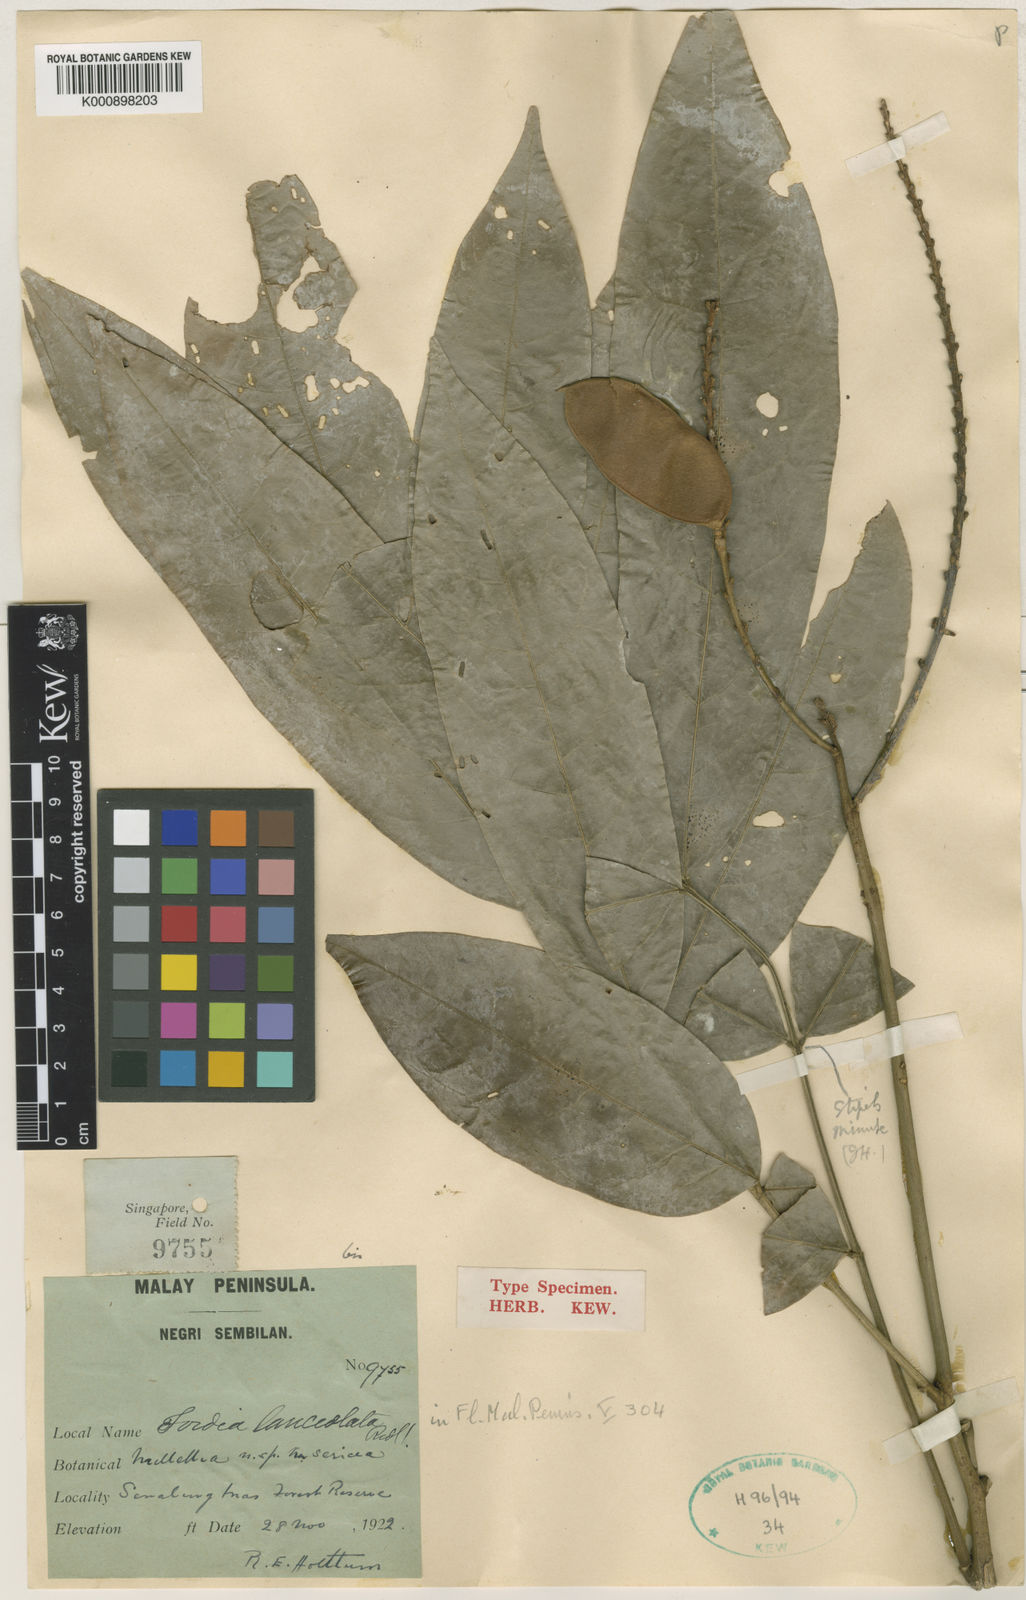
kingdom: Plantae
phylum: Tracheophyta
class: Magnoliopsida
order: Fabales
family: Fabaceae
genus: Fordia
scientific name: Fordia lanceolata
